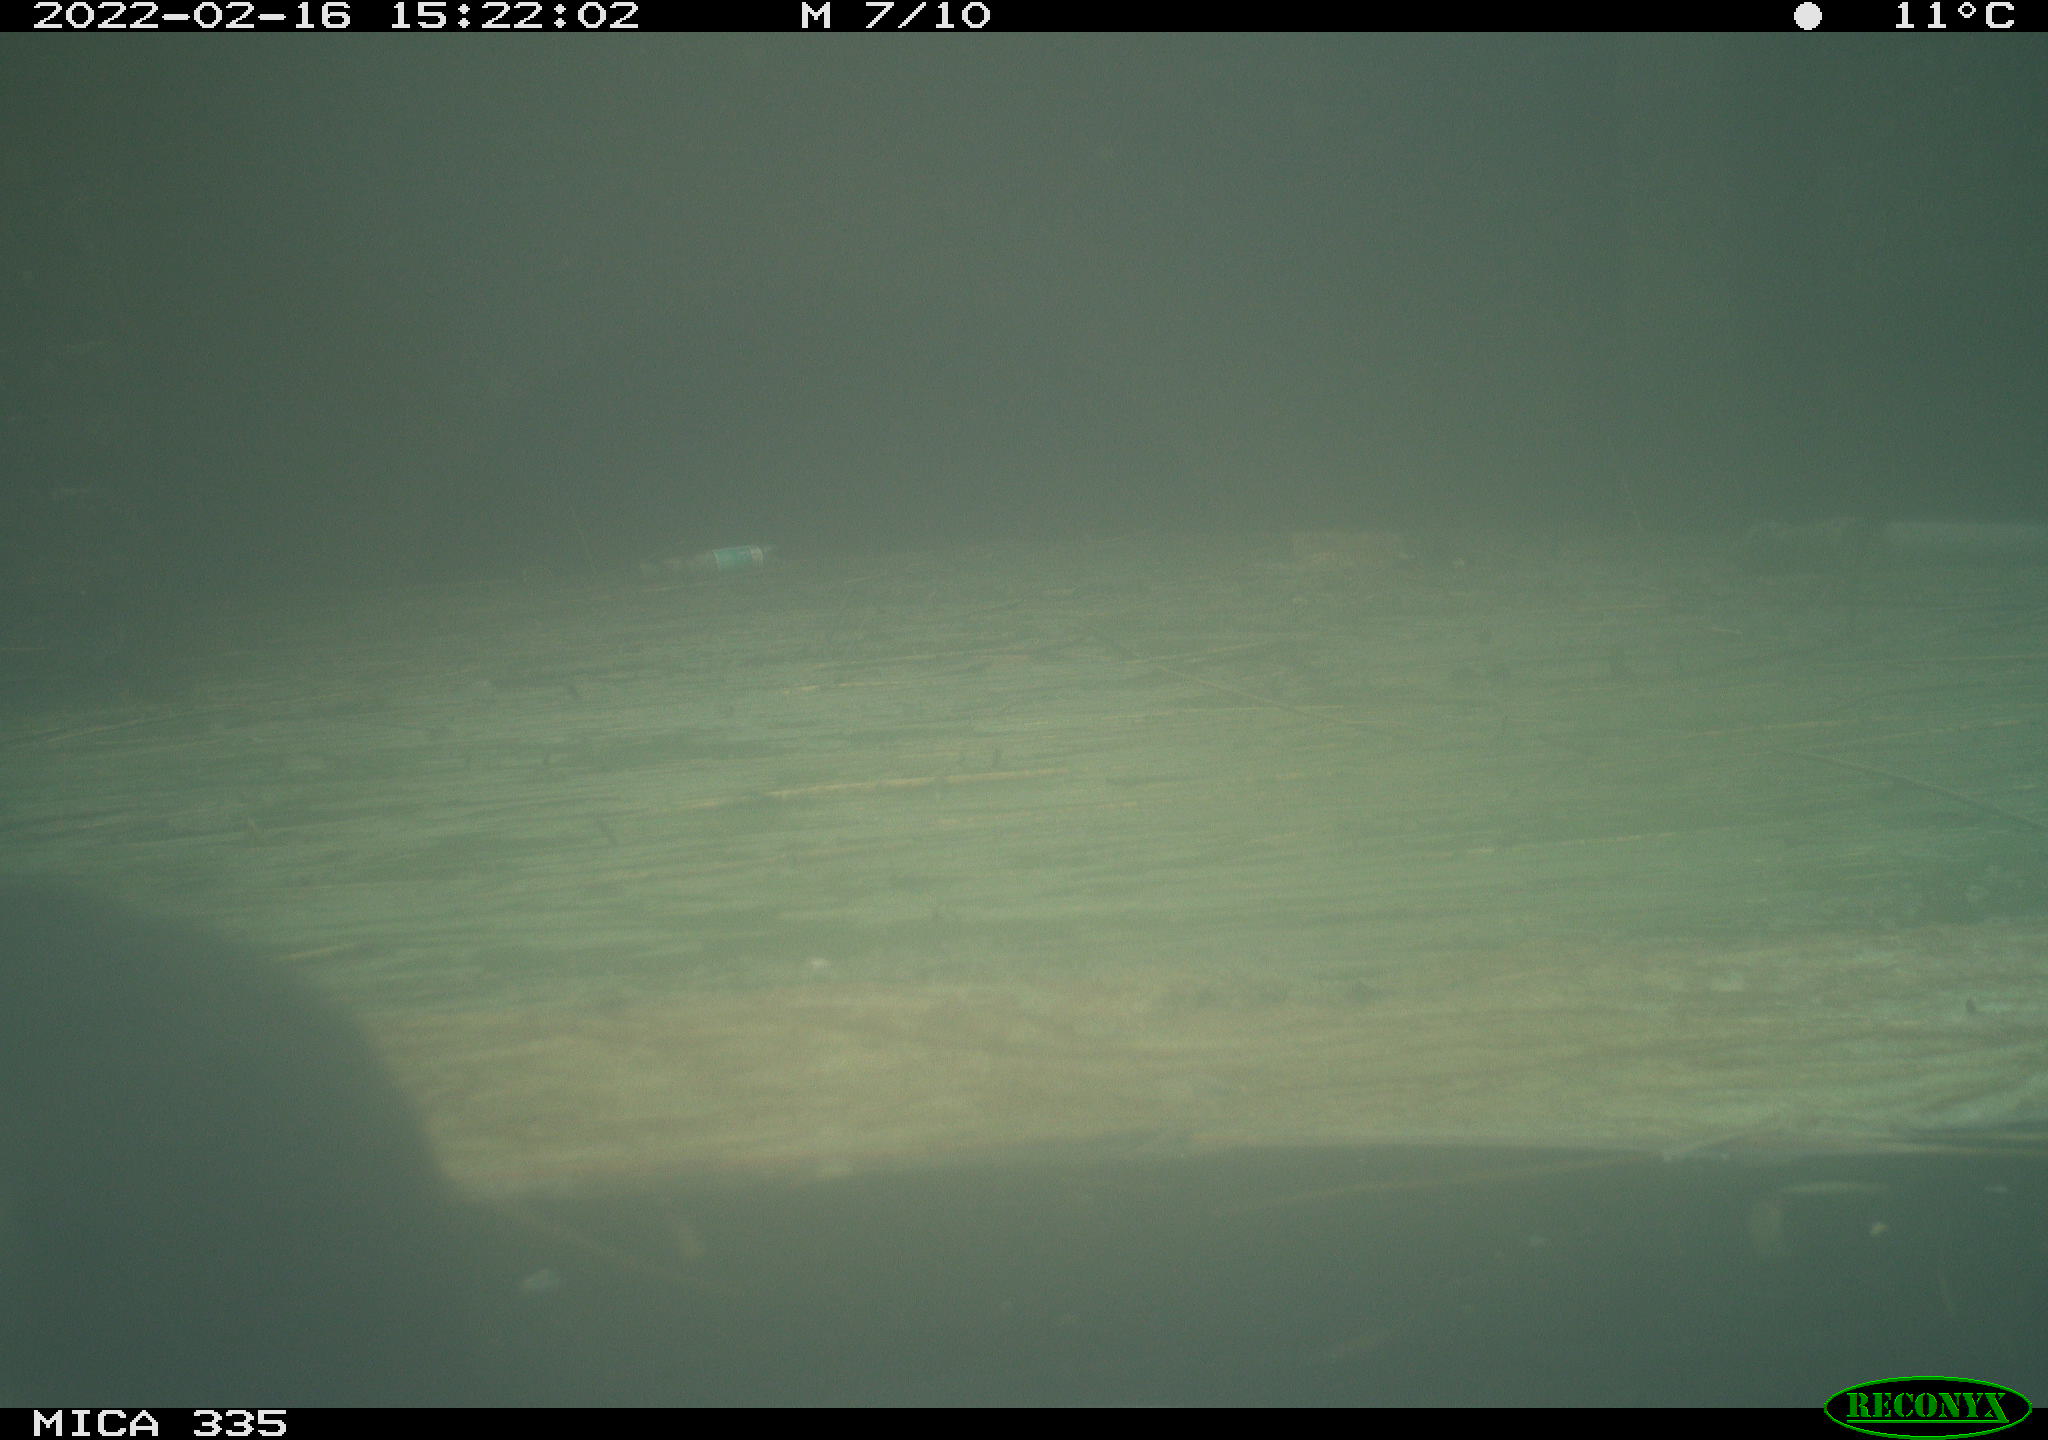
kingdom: Animalia
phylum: Chordata
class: Aves
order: Suliformes
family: Phalacrocoracidae
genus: Phalacrocorax
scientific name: Phalacrocorax carbo
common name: Great cormorant
